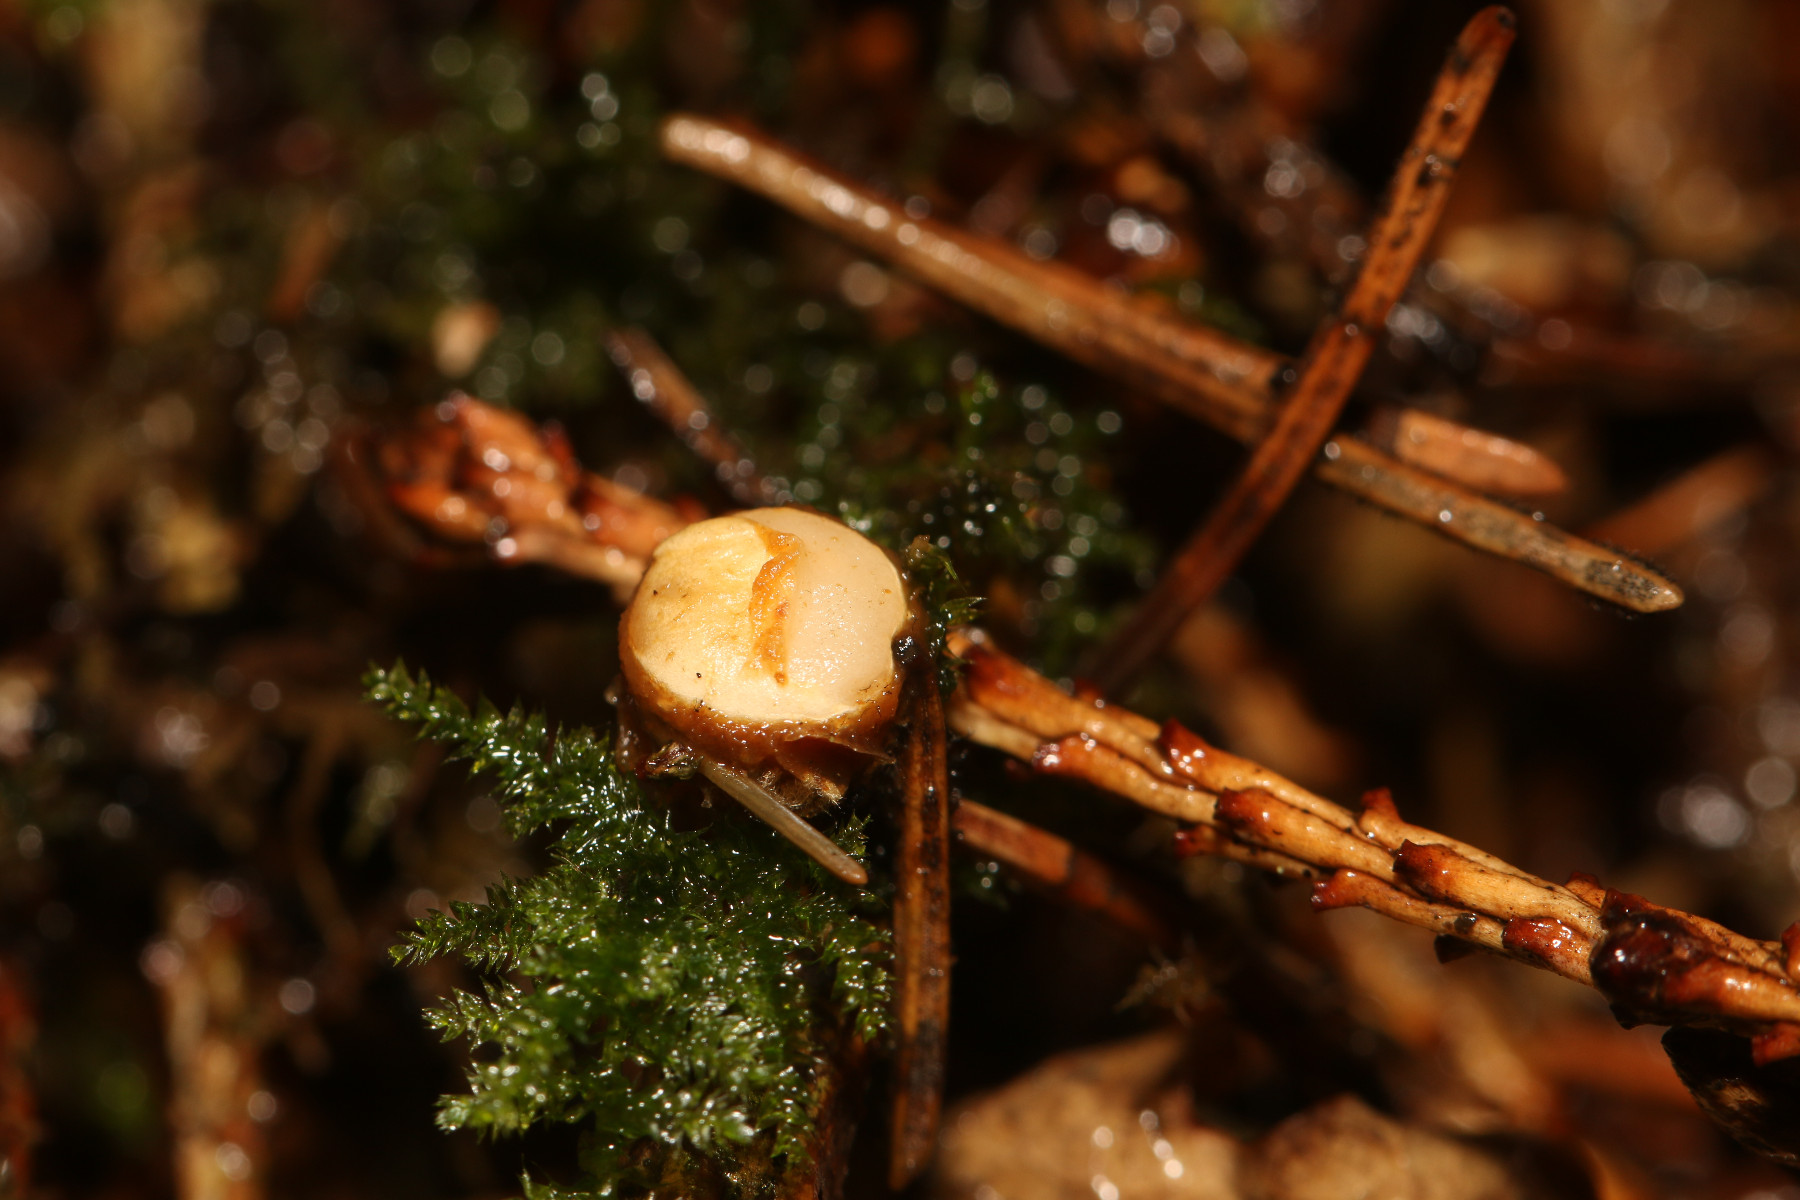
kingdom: Fungi
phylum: Basidiomycota
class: Agaricomycetes
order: Agaricales
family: Nidulariaceae
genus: Crucibulum
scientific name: Crucibulum crucibuliforme
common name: krukkesvamp
